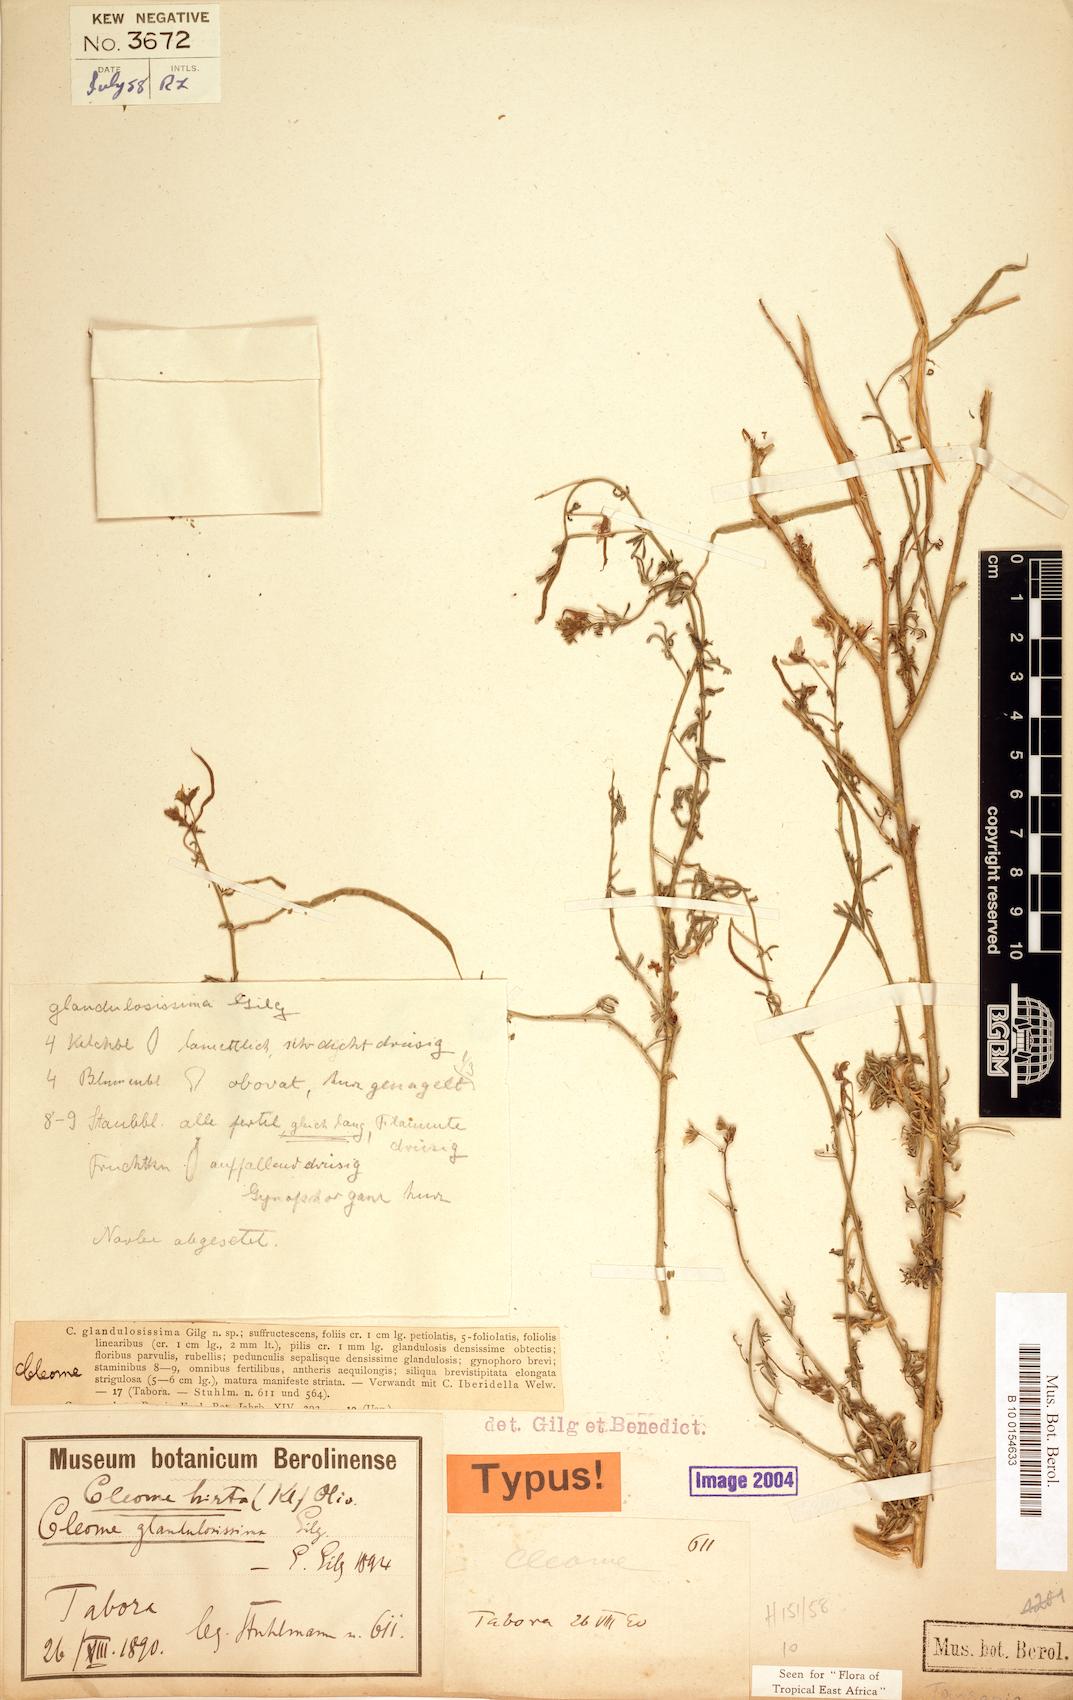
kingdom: Plantae
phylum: Tracheophyta
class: Magnoliopsida
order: Brassicales
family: Cleomaceae
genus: Sieruela
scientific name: Sieruela hirta
